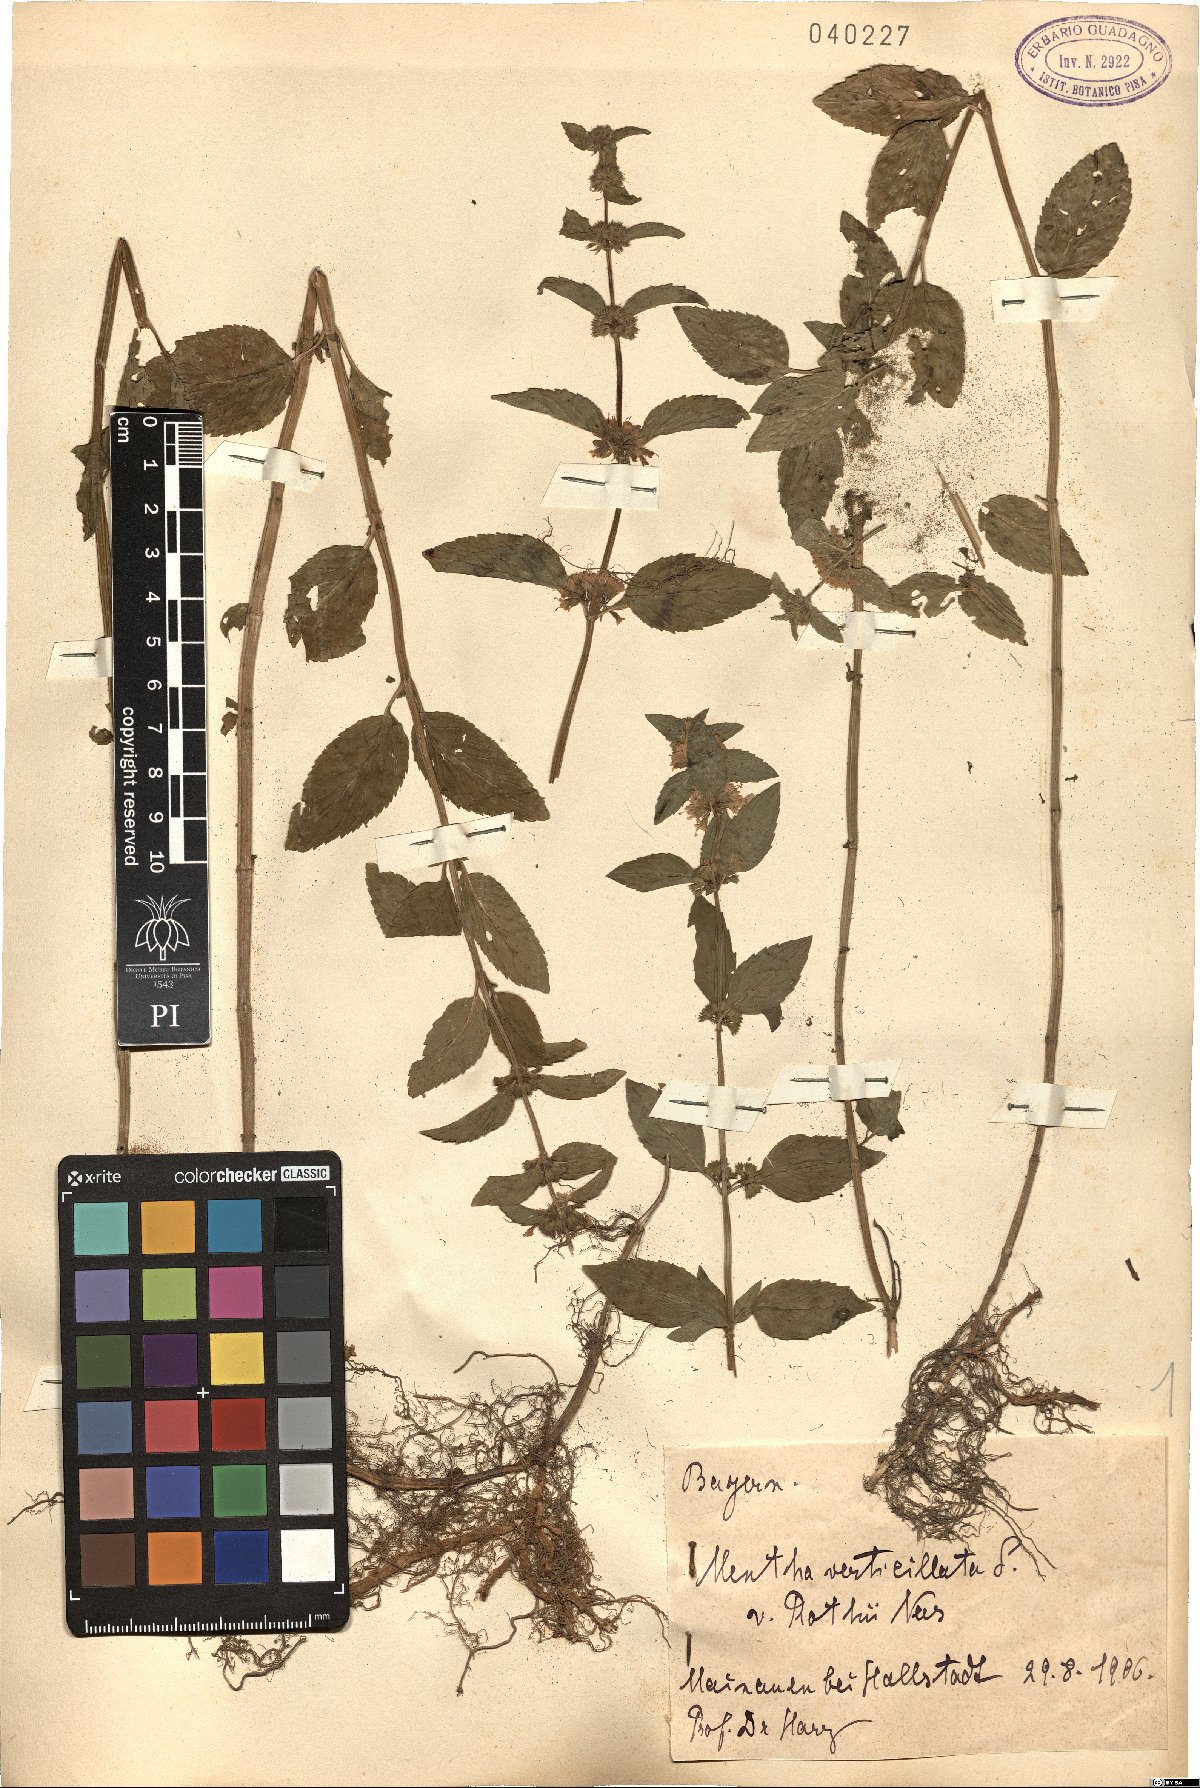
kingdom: Plantae
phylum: Tracheophyta
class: Magnoliopsida
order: Lamiales
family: Lamiaceae
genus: Mentha
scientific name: Mentha arvensis
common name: Corn mint
